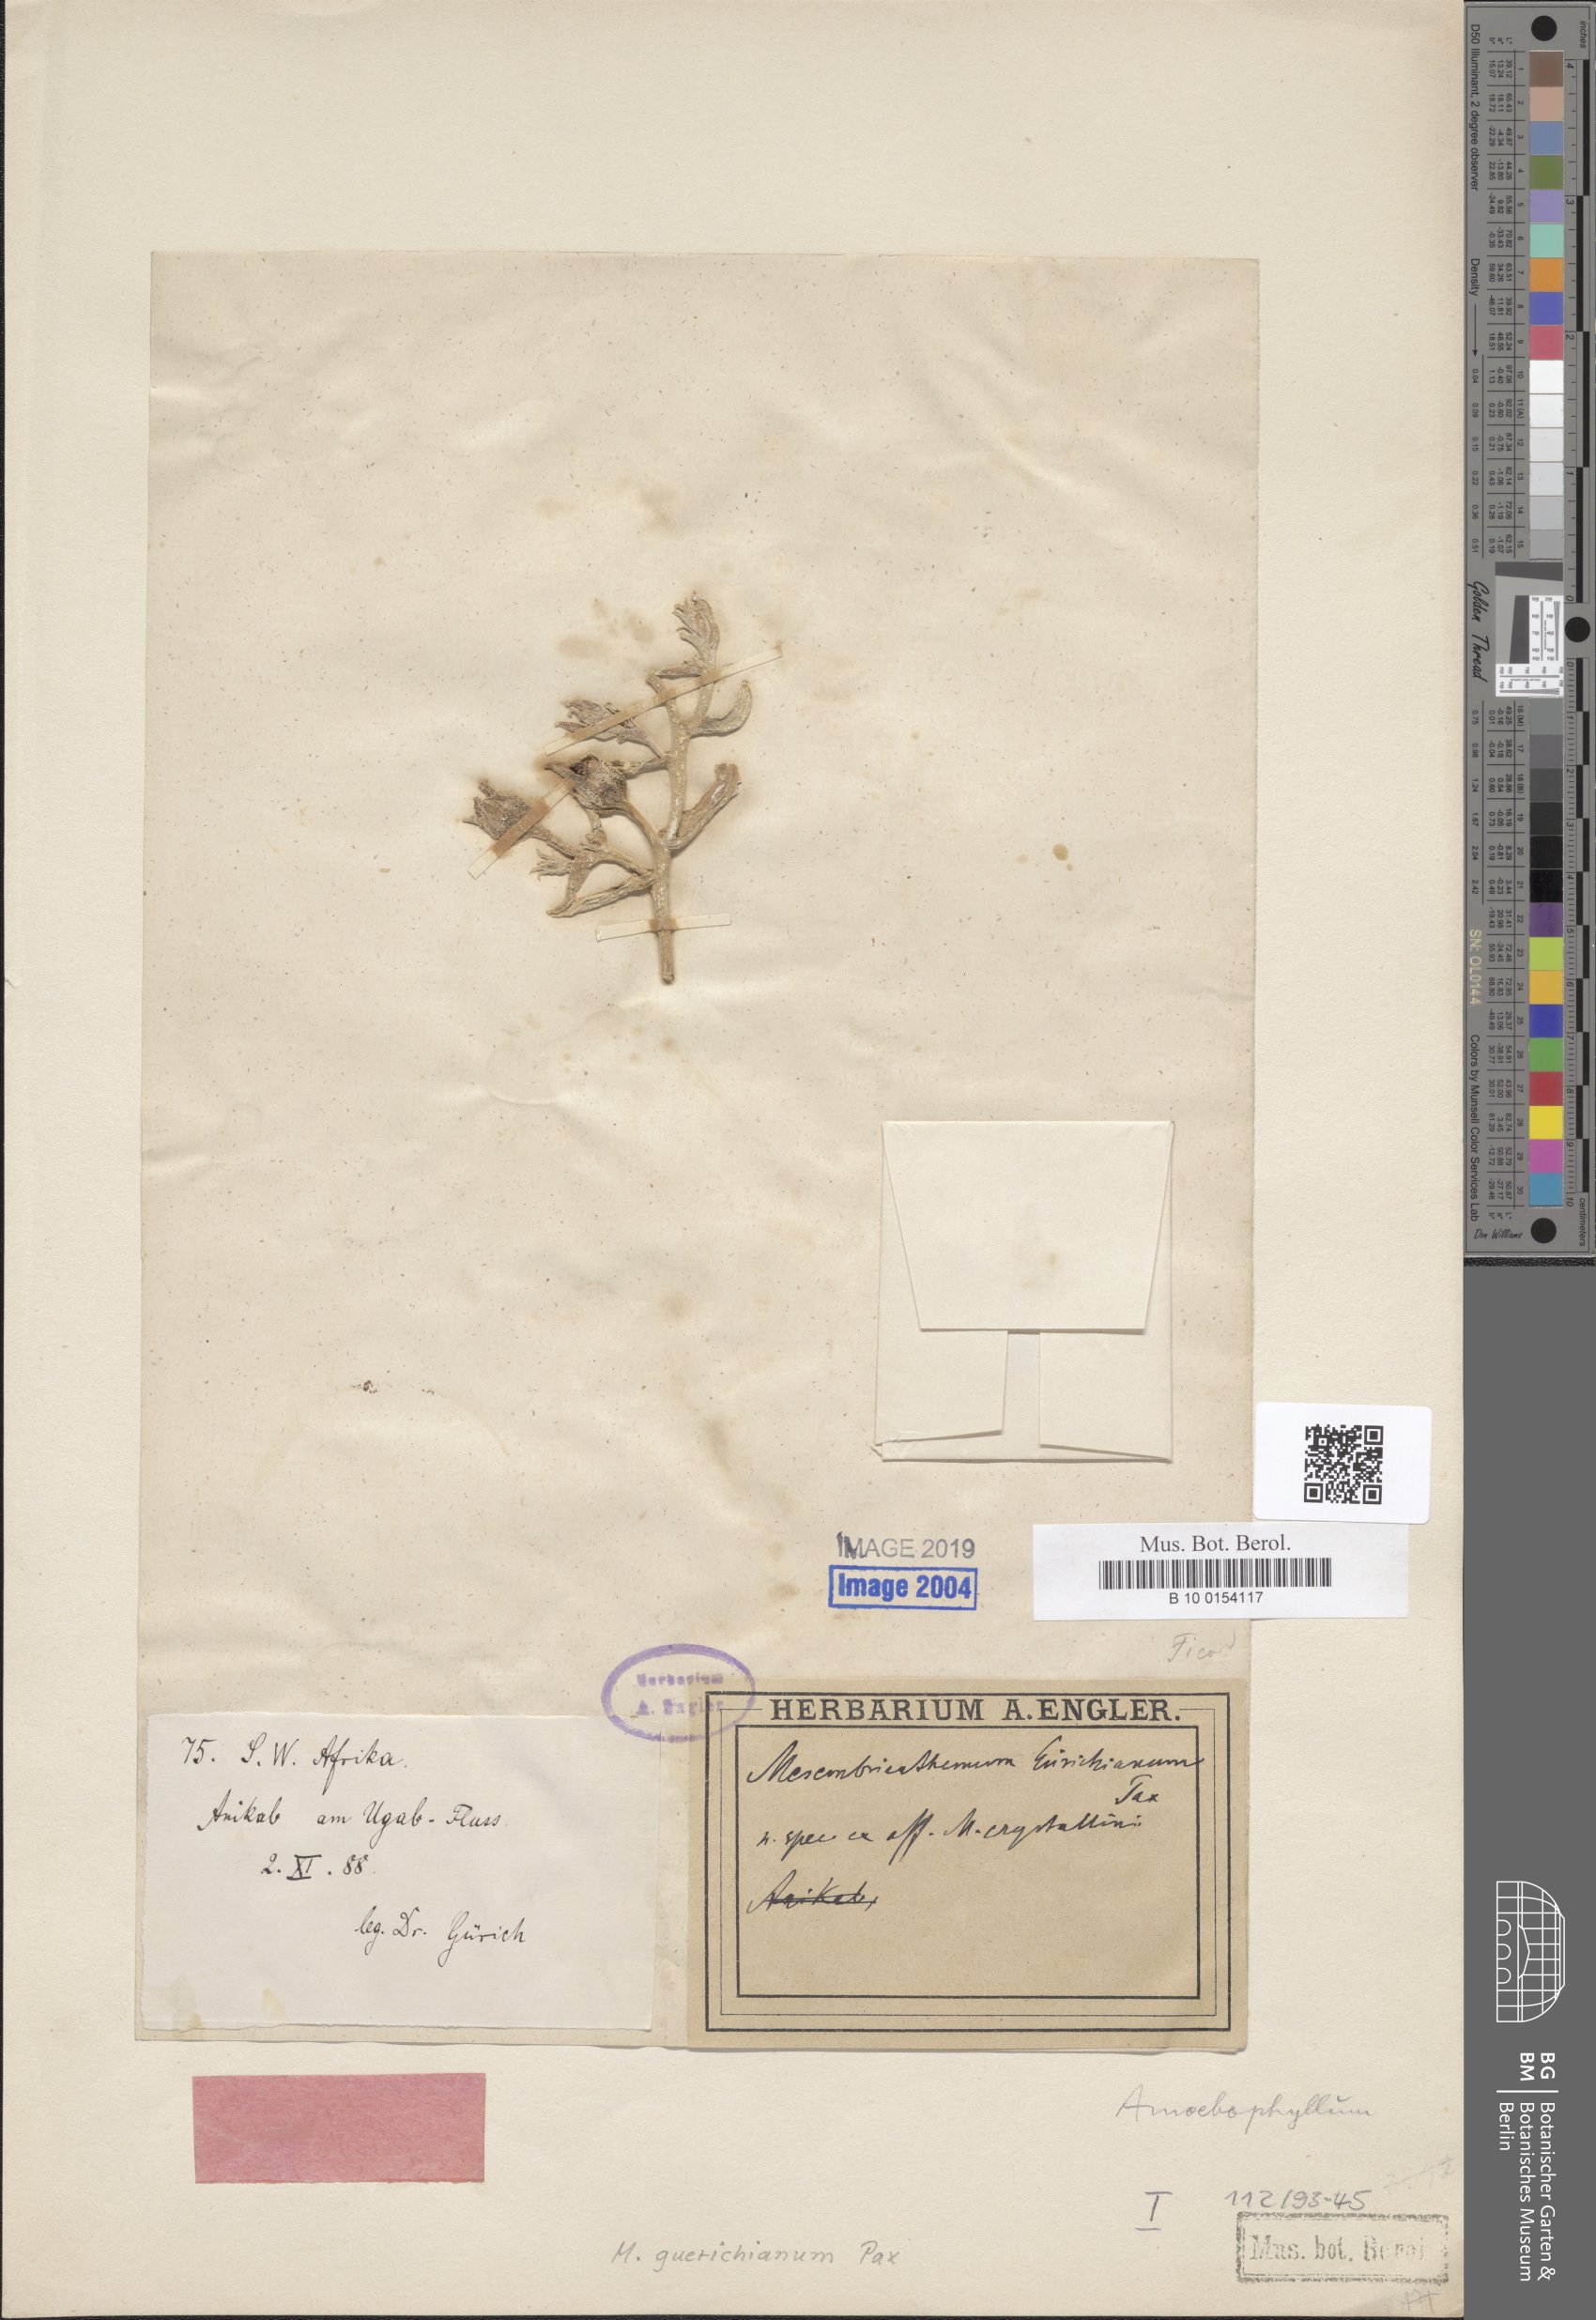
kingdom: Plantae
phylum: Tracheophyta
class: Magnoliopsida
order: Caryophyllales
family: Aizoaceae
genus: Mesembryanthemum
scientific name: Mesembryanthemum guerichianum
